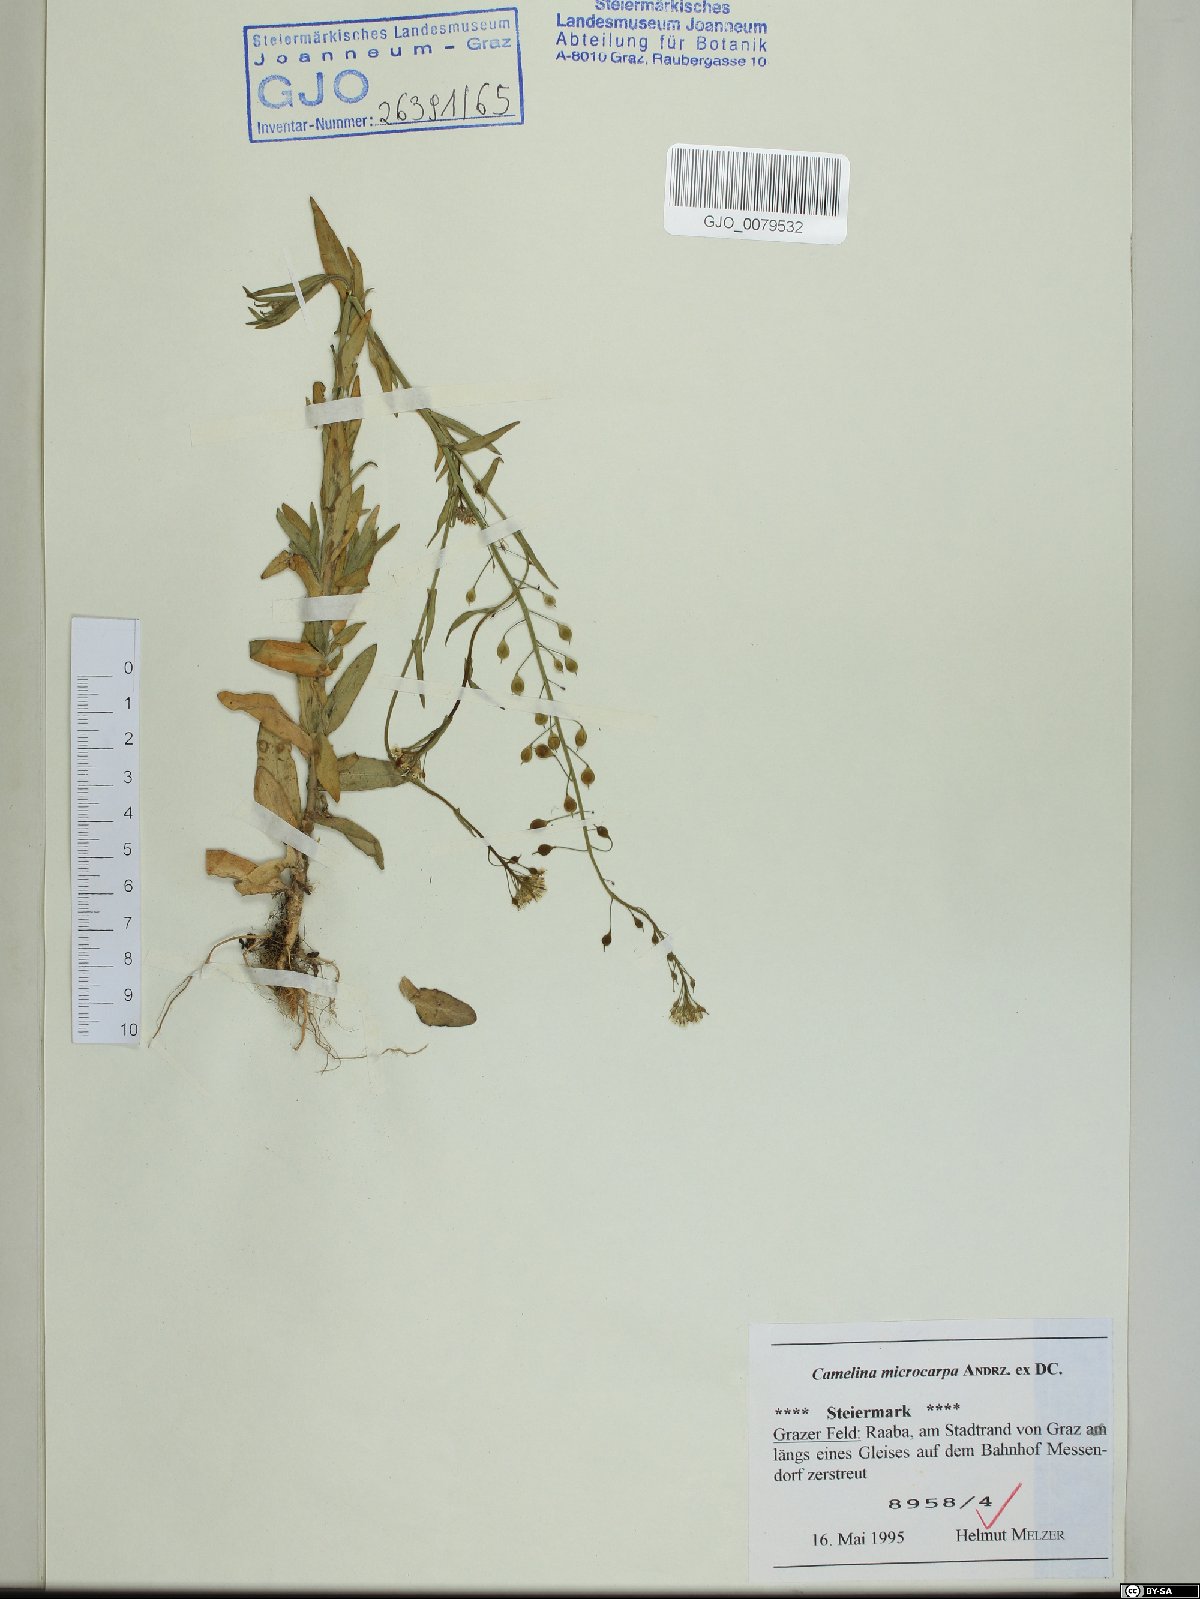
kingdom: Plantae
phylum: Tracheophyta
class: Magnoliopsida
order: Brassicales
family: Brassicaceae
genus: Camelina
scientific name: Camelina microcarpa
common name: Lesser gold-of-pleasure
